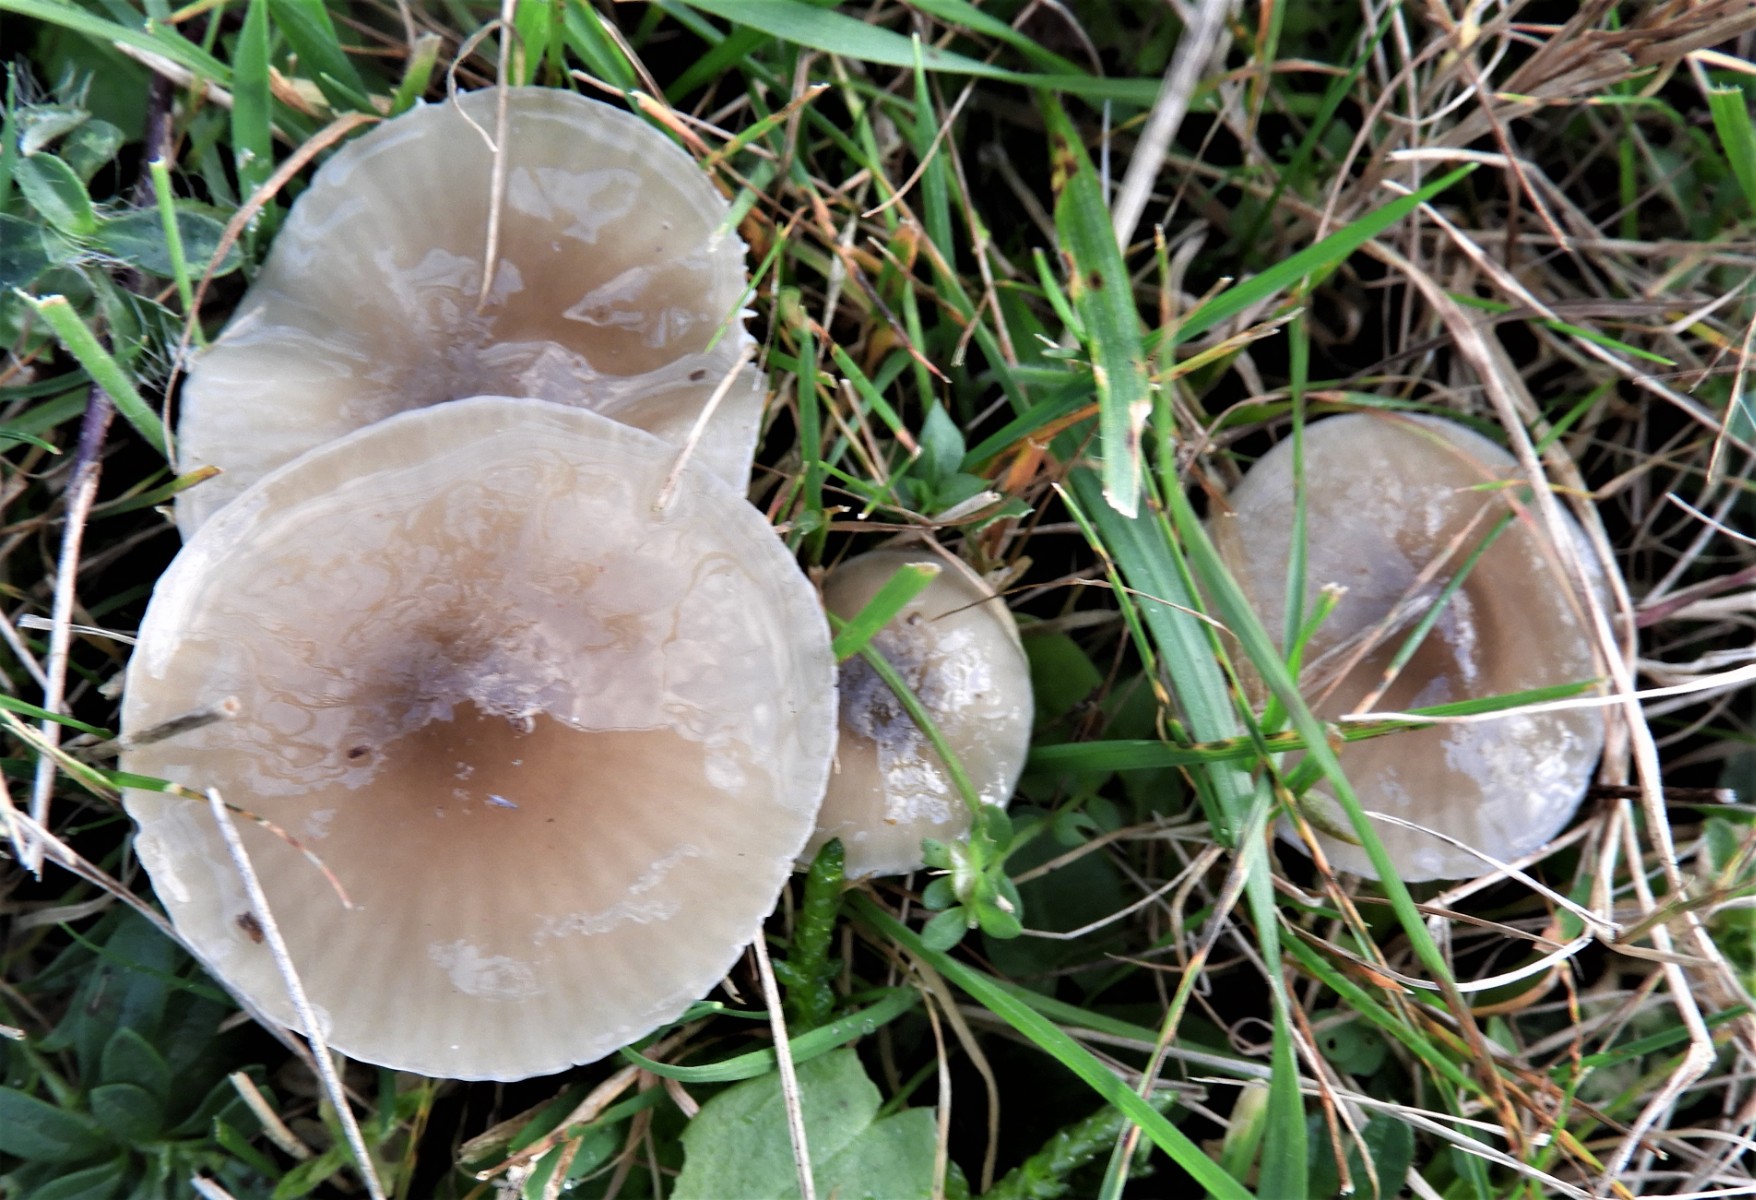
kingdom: Fungi
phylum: Basidiomycota
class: Agaricomycetes
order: Agaricales
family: Hygrophoraceae
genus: Gliophorus
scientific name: Gliophorus irrigatus
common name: slimet vokshat
